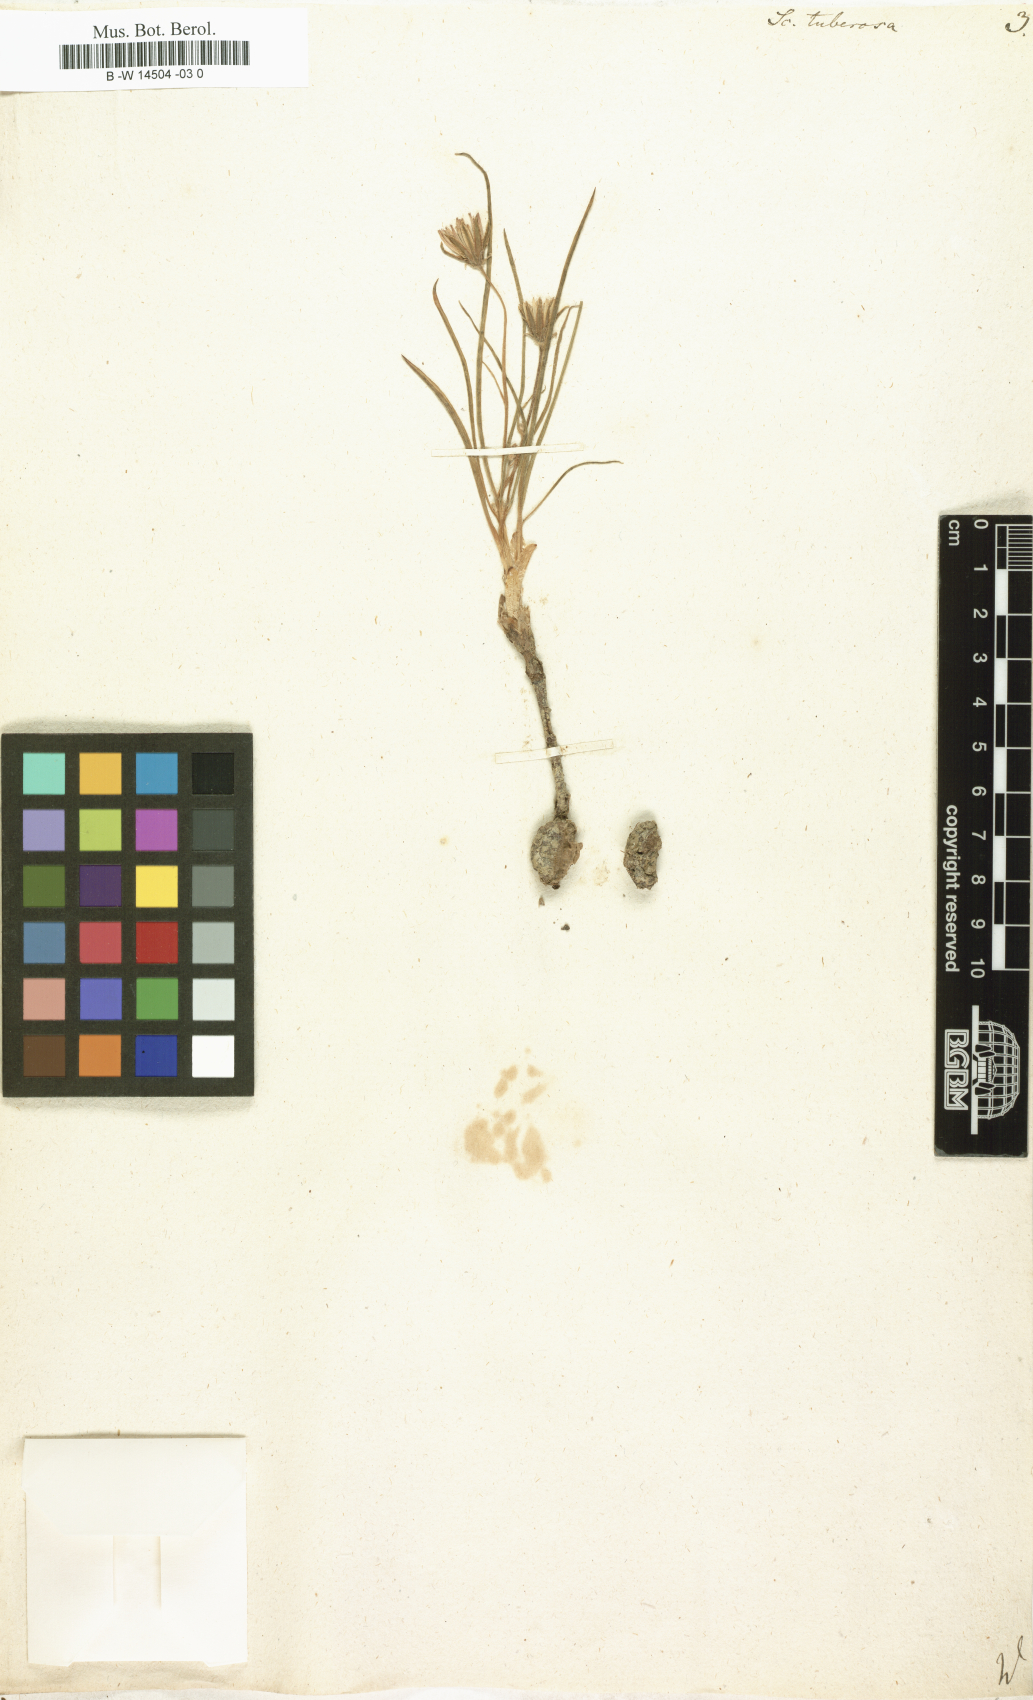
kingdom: Plantae
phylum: Tracheophyta
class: Magnoliopsida
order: Asterales
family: Asteraceae
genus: Scorzonera
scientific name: Scorzonera tuberosa
